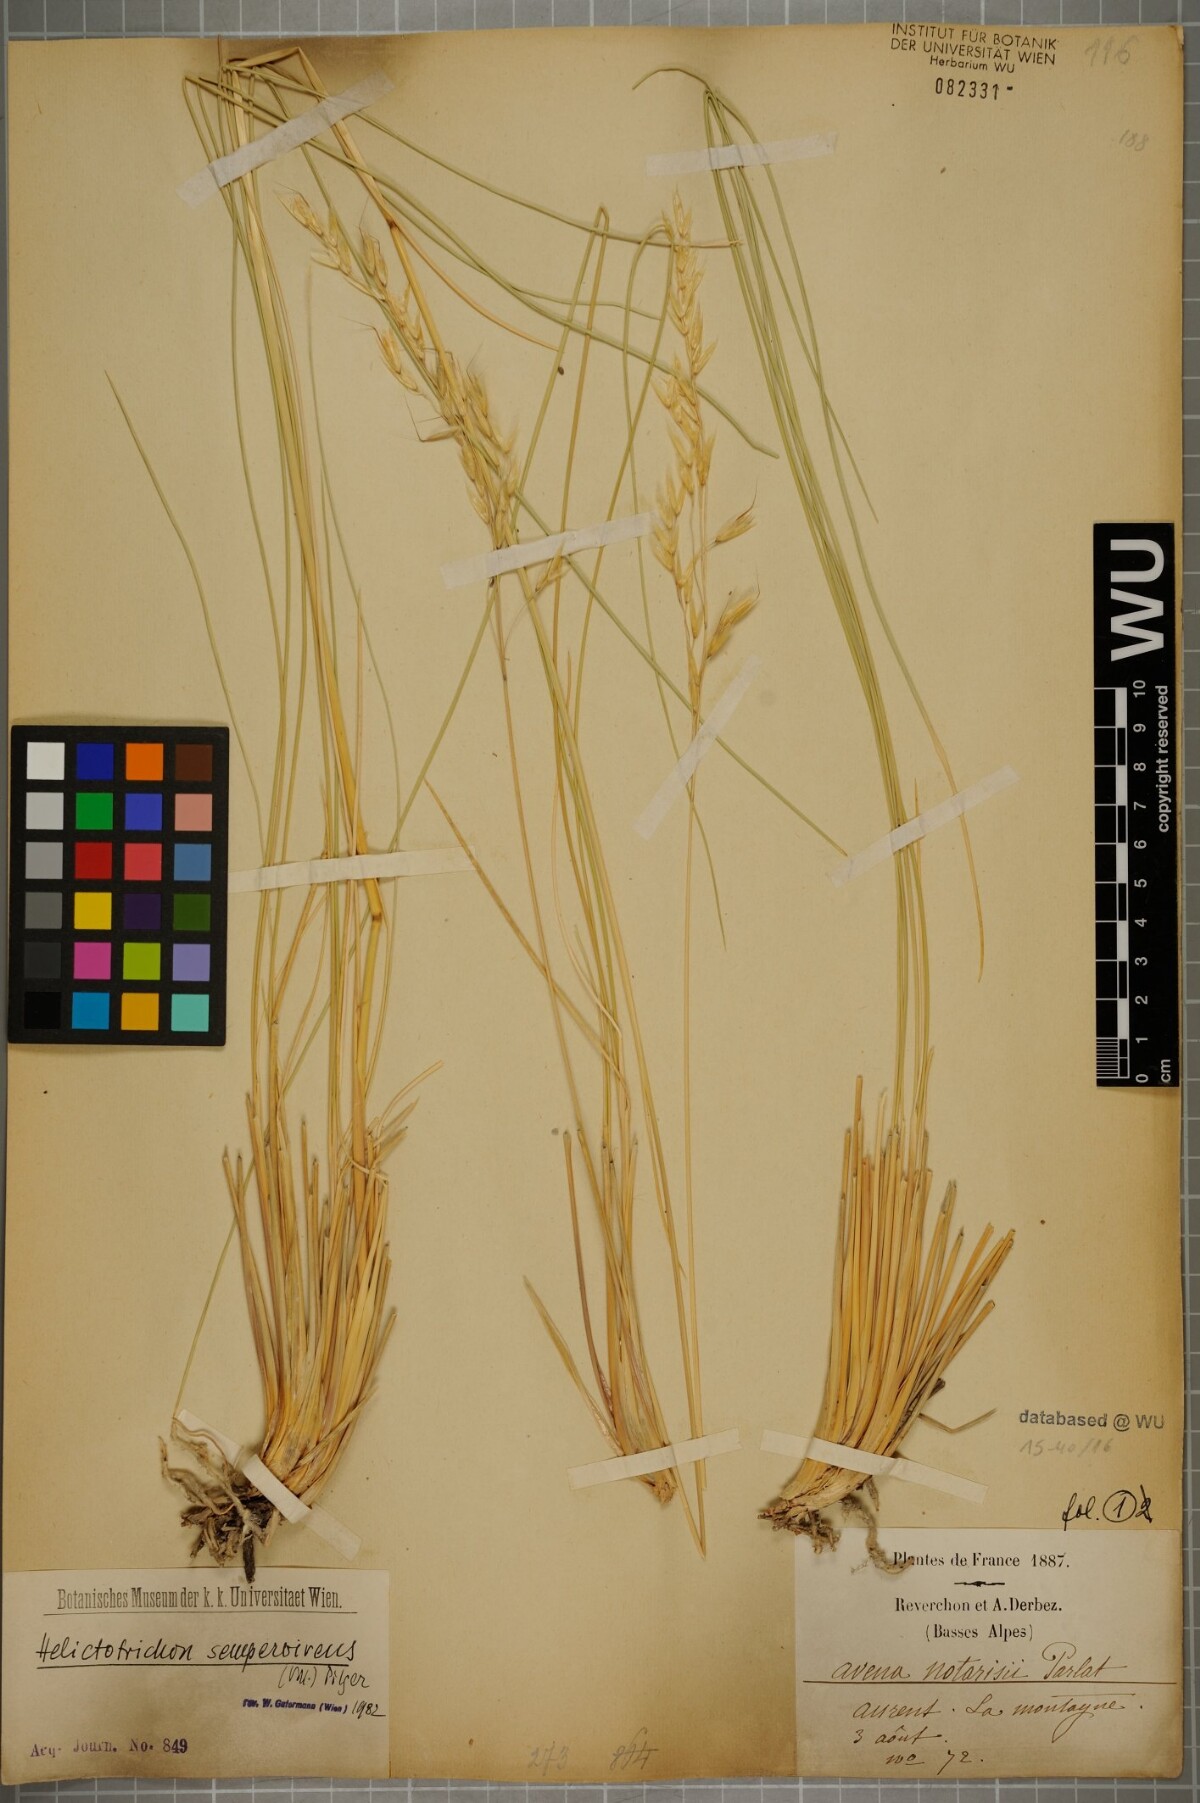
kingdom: Plantae
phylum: Tracheophyta
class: Liliopsida
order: Poales
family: Poaceae
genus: Helictotrichon
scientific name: Helictotrichon sempervirens
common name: Blue oat-grass
